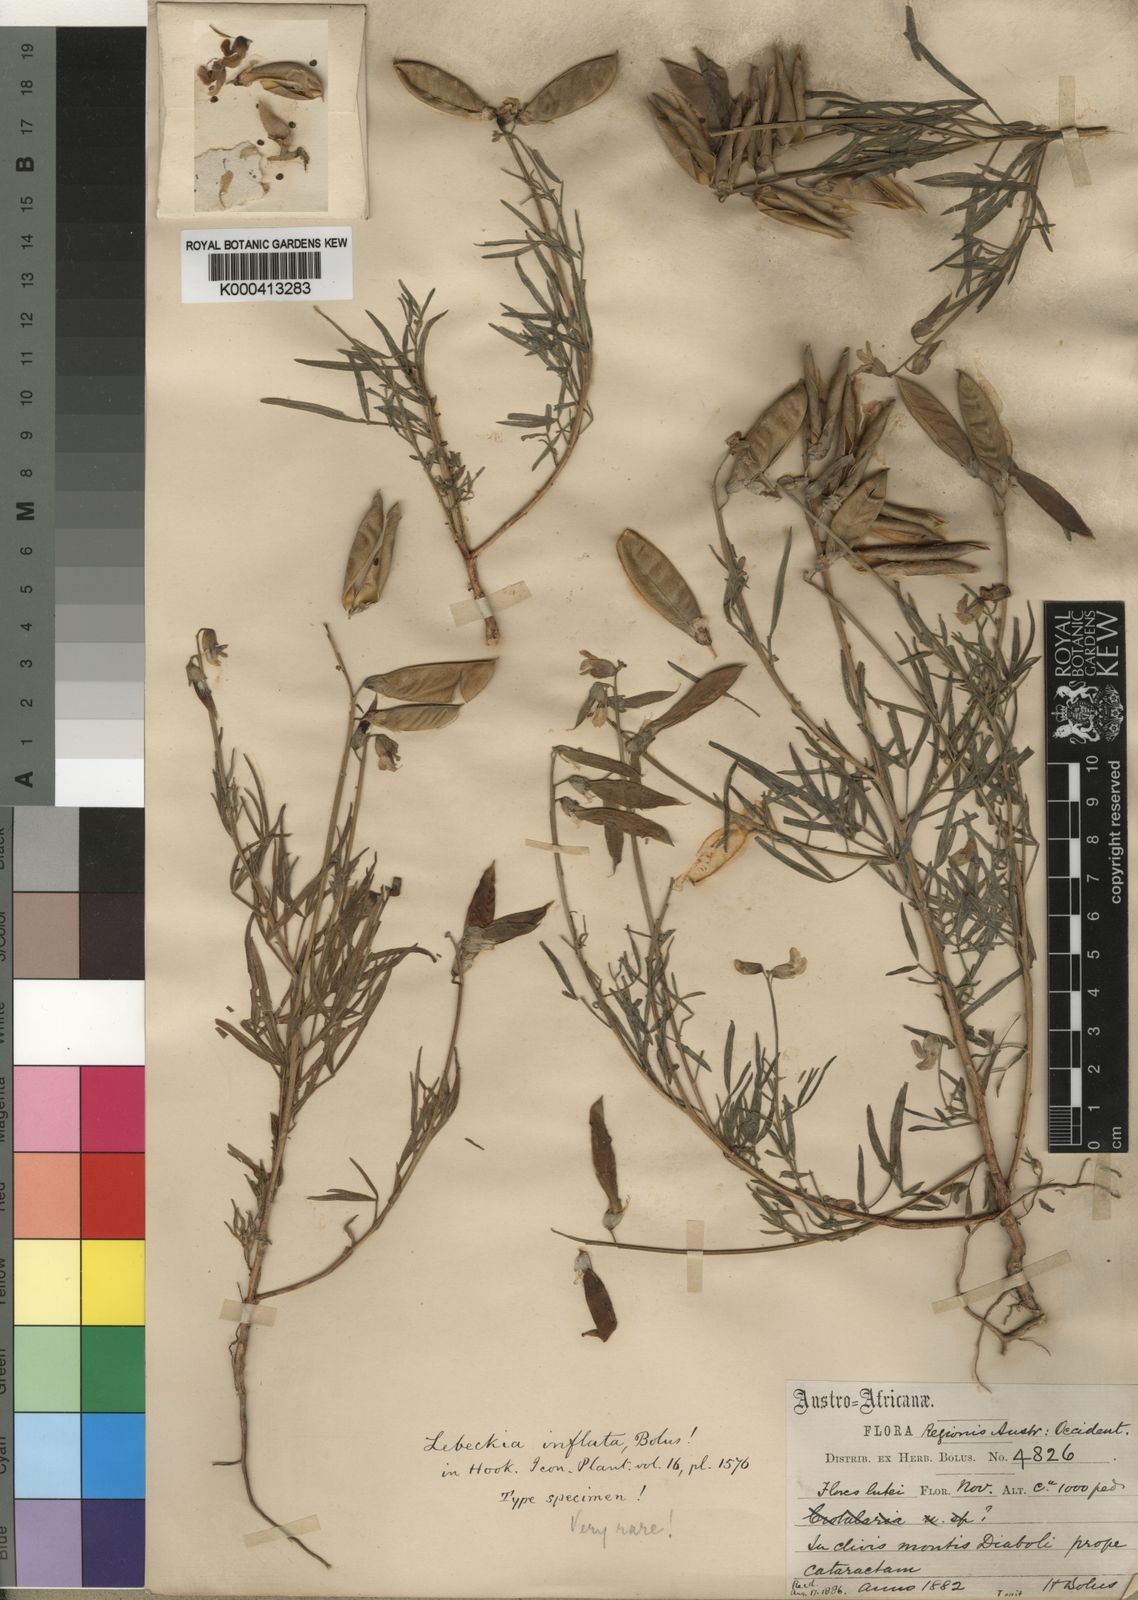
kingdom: Plantae
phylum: Tracheophyta
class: Magnoliopsida
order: Fabales
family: Fabaceae
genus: Wiborgiella
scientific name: Wiborgiella inflata
